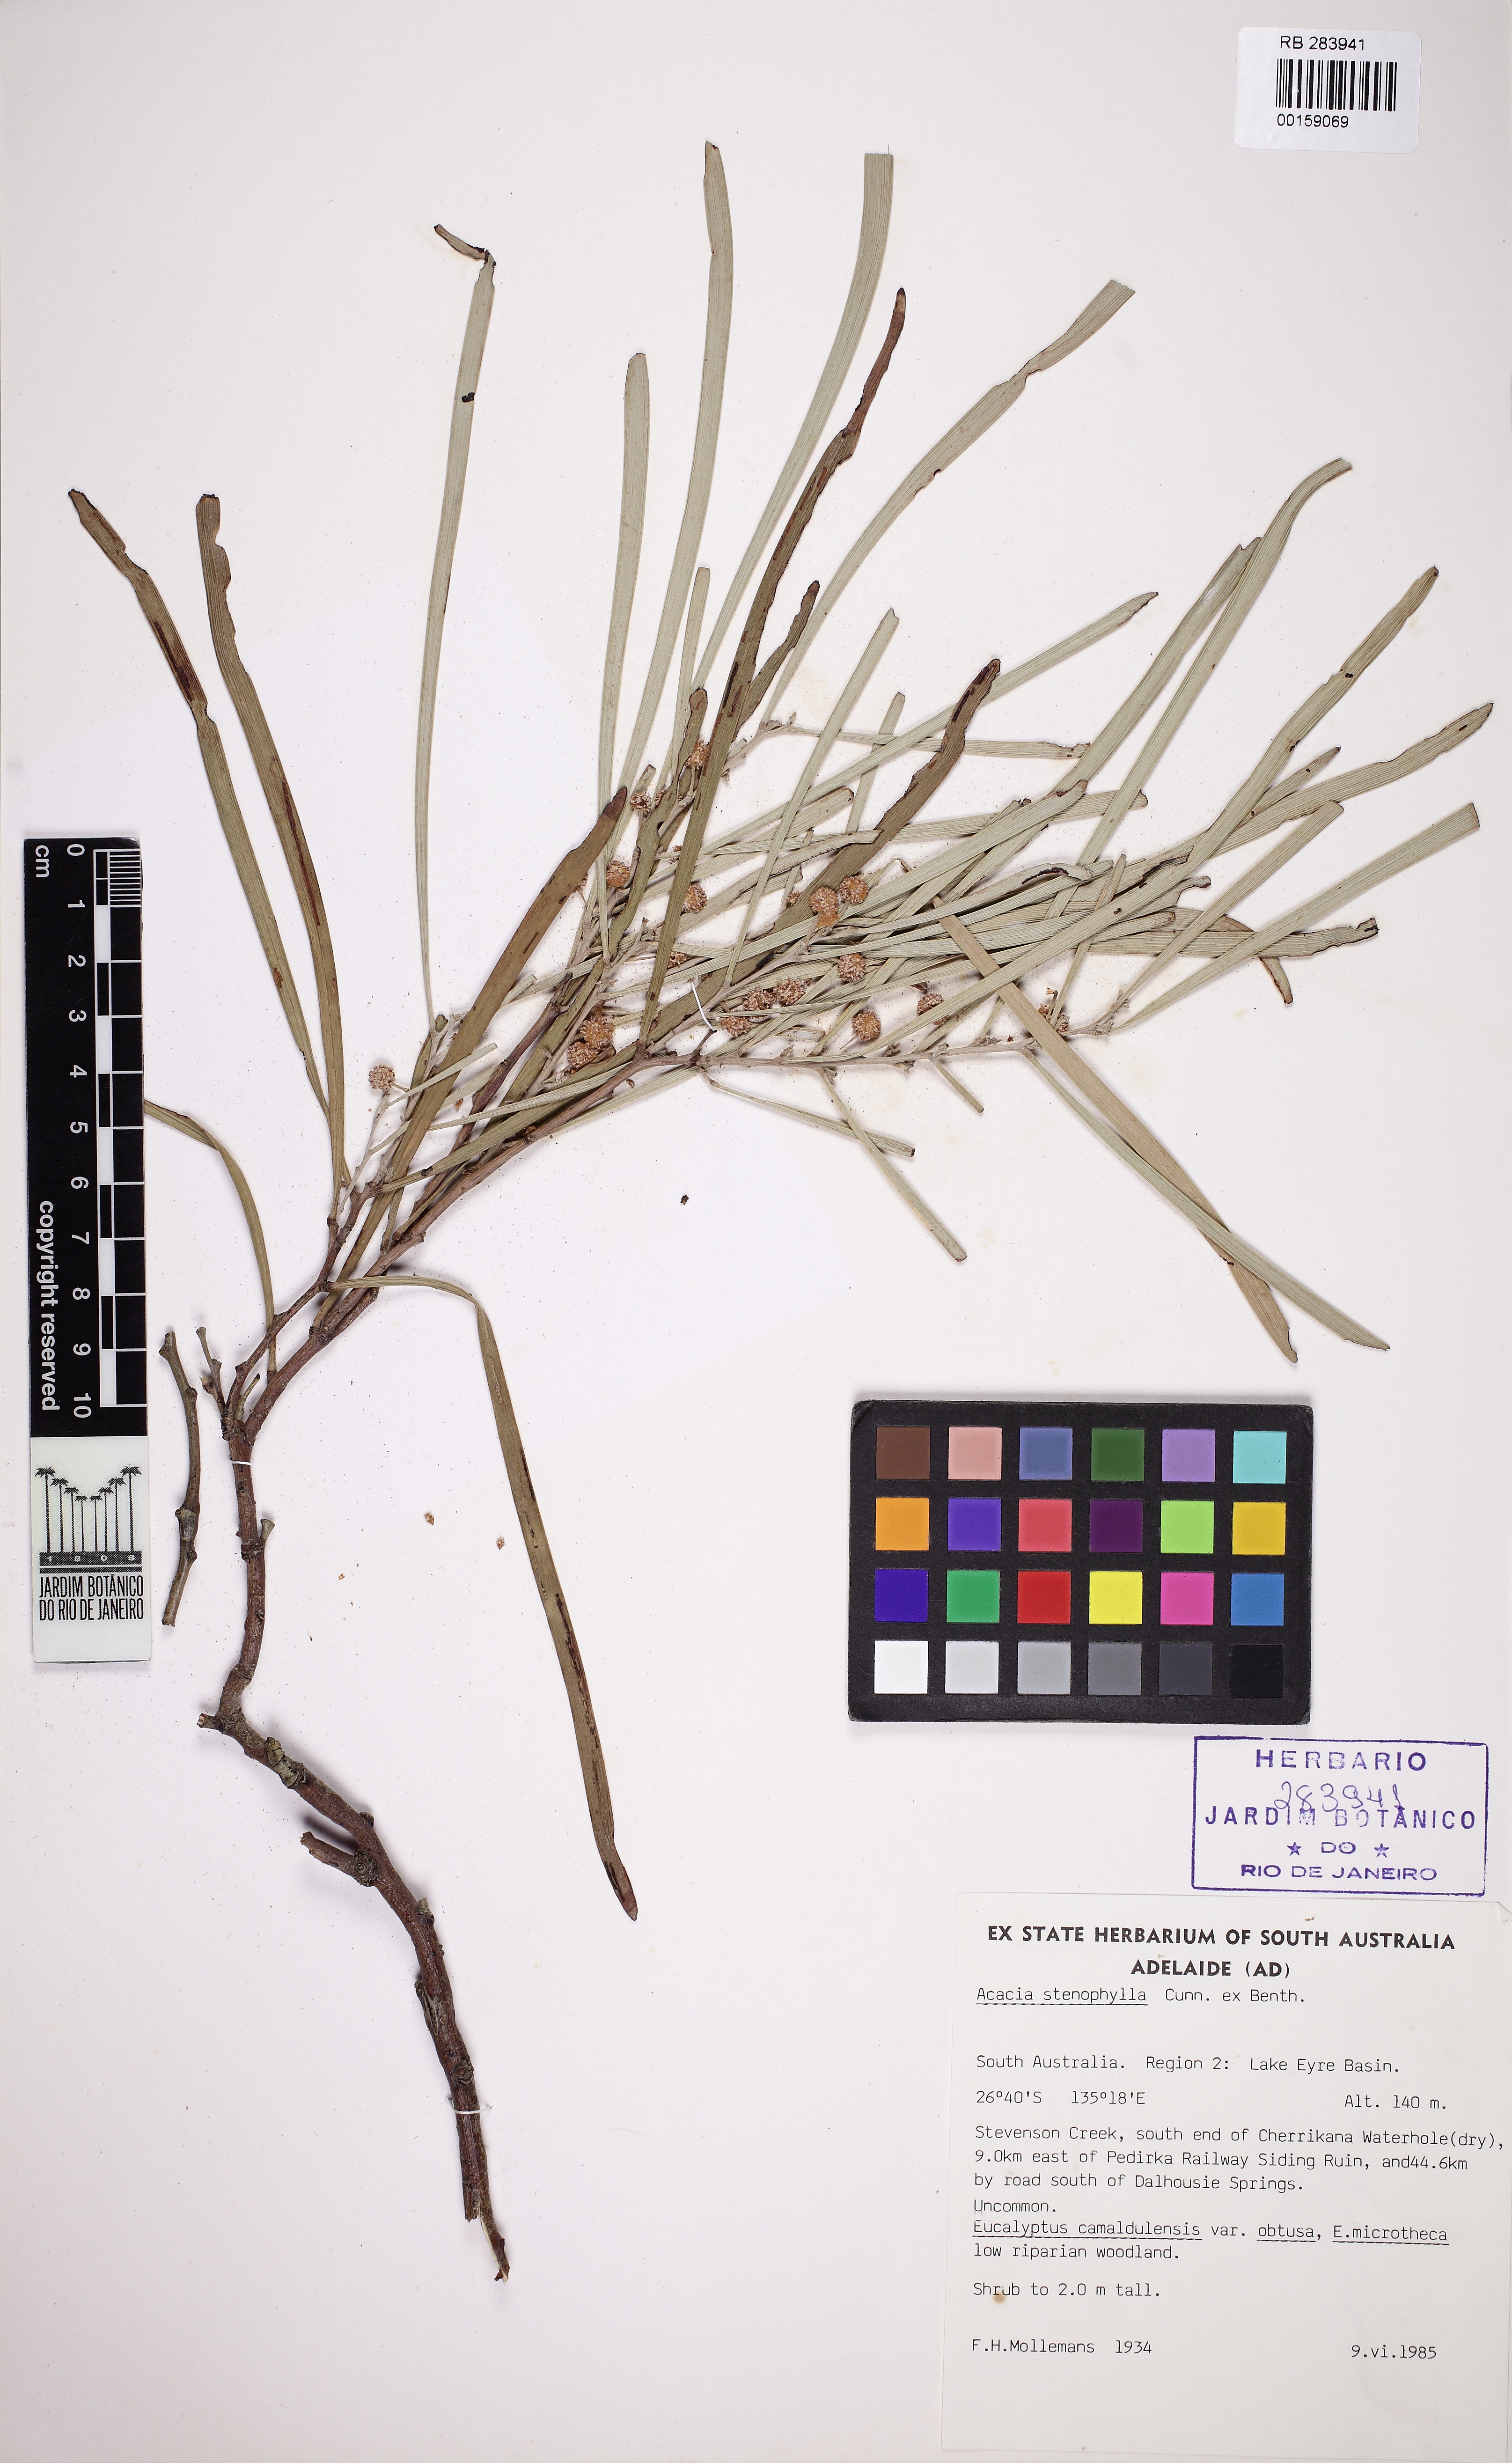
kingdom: Plantae
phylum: Tracheophyta
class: Magnoliopsida
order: Fabales
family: Fabaceae
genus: Acacia
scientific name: Acacia stenophylla
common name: River cooba
